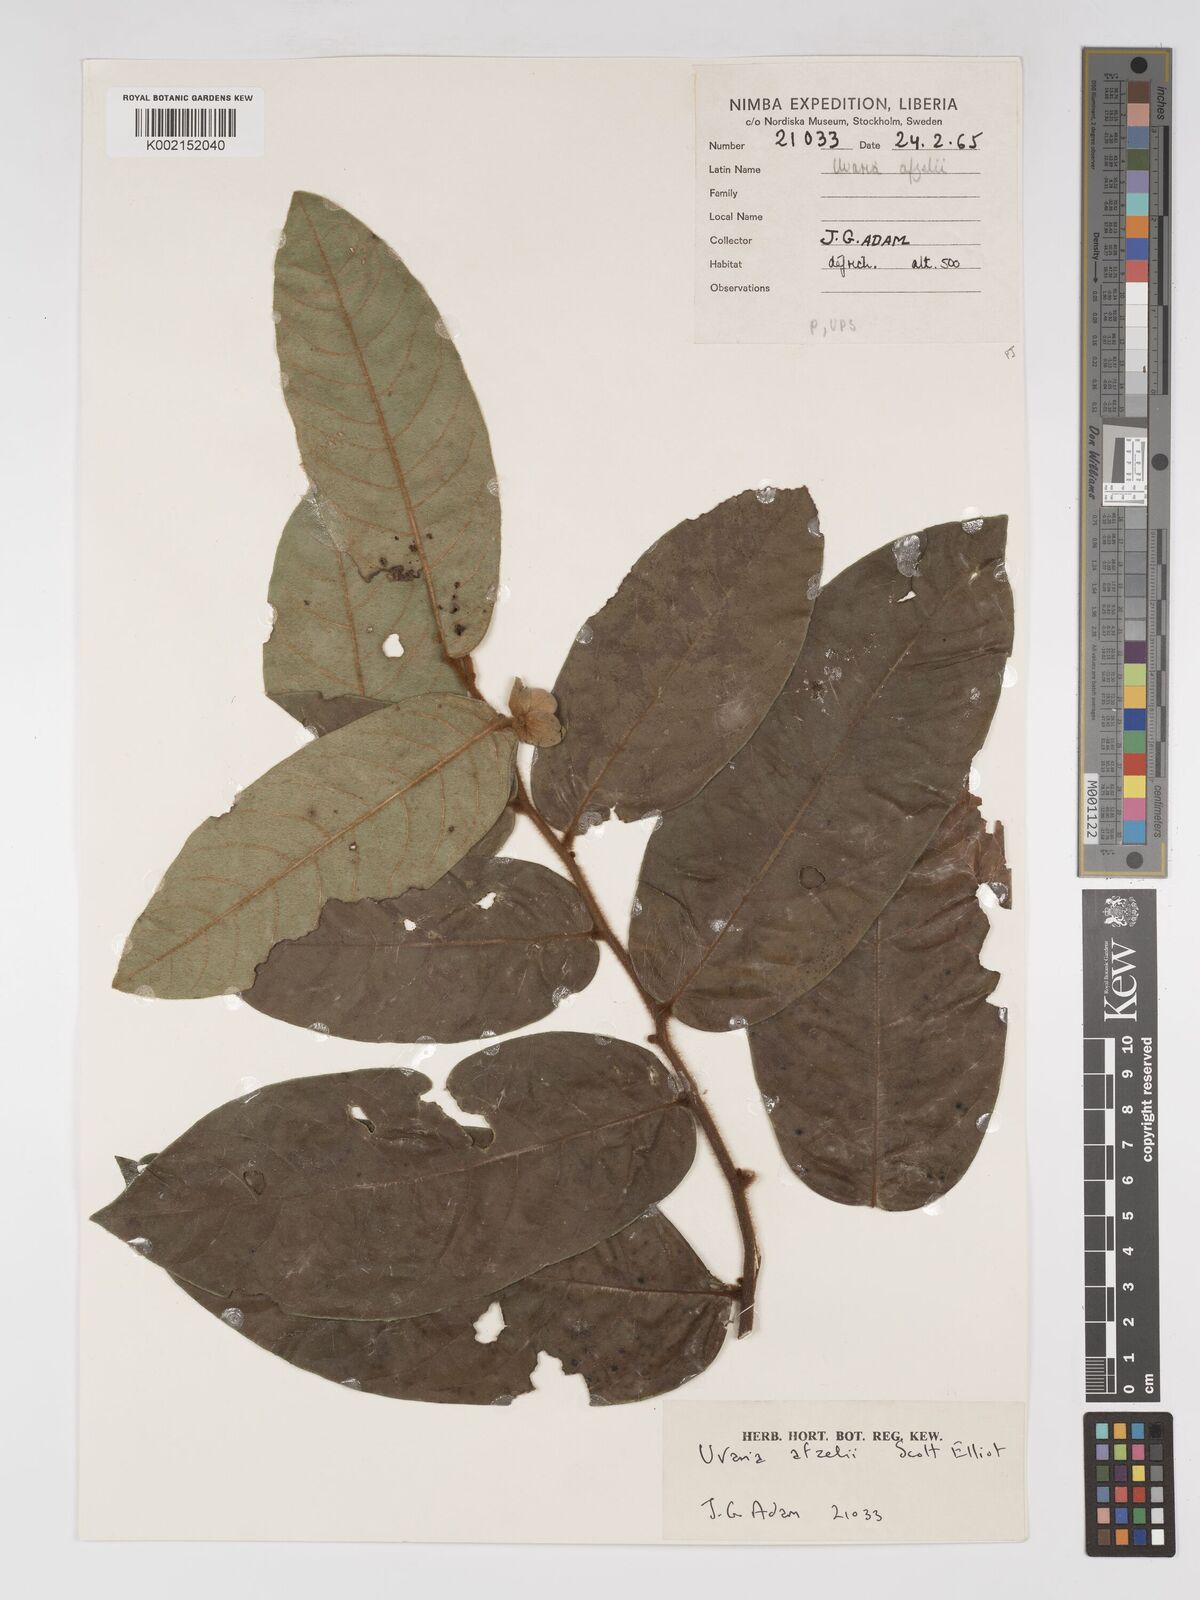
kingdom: Plantae
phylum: Tracheophyta
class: Magnoliopsida
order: Magnoliales
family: Annonaceae
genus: Uvaria
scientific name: Uvaria afzelii
